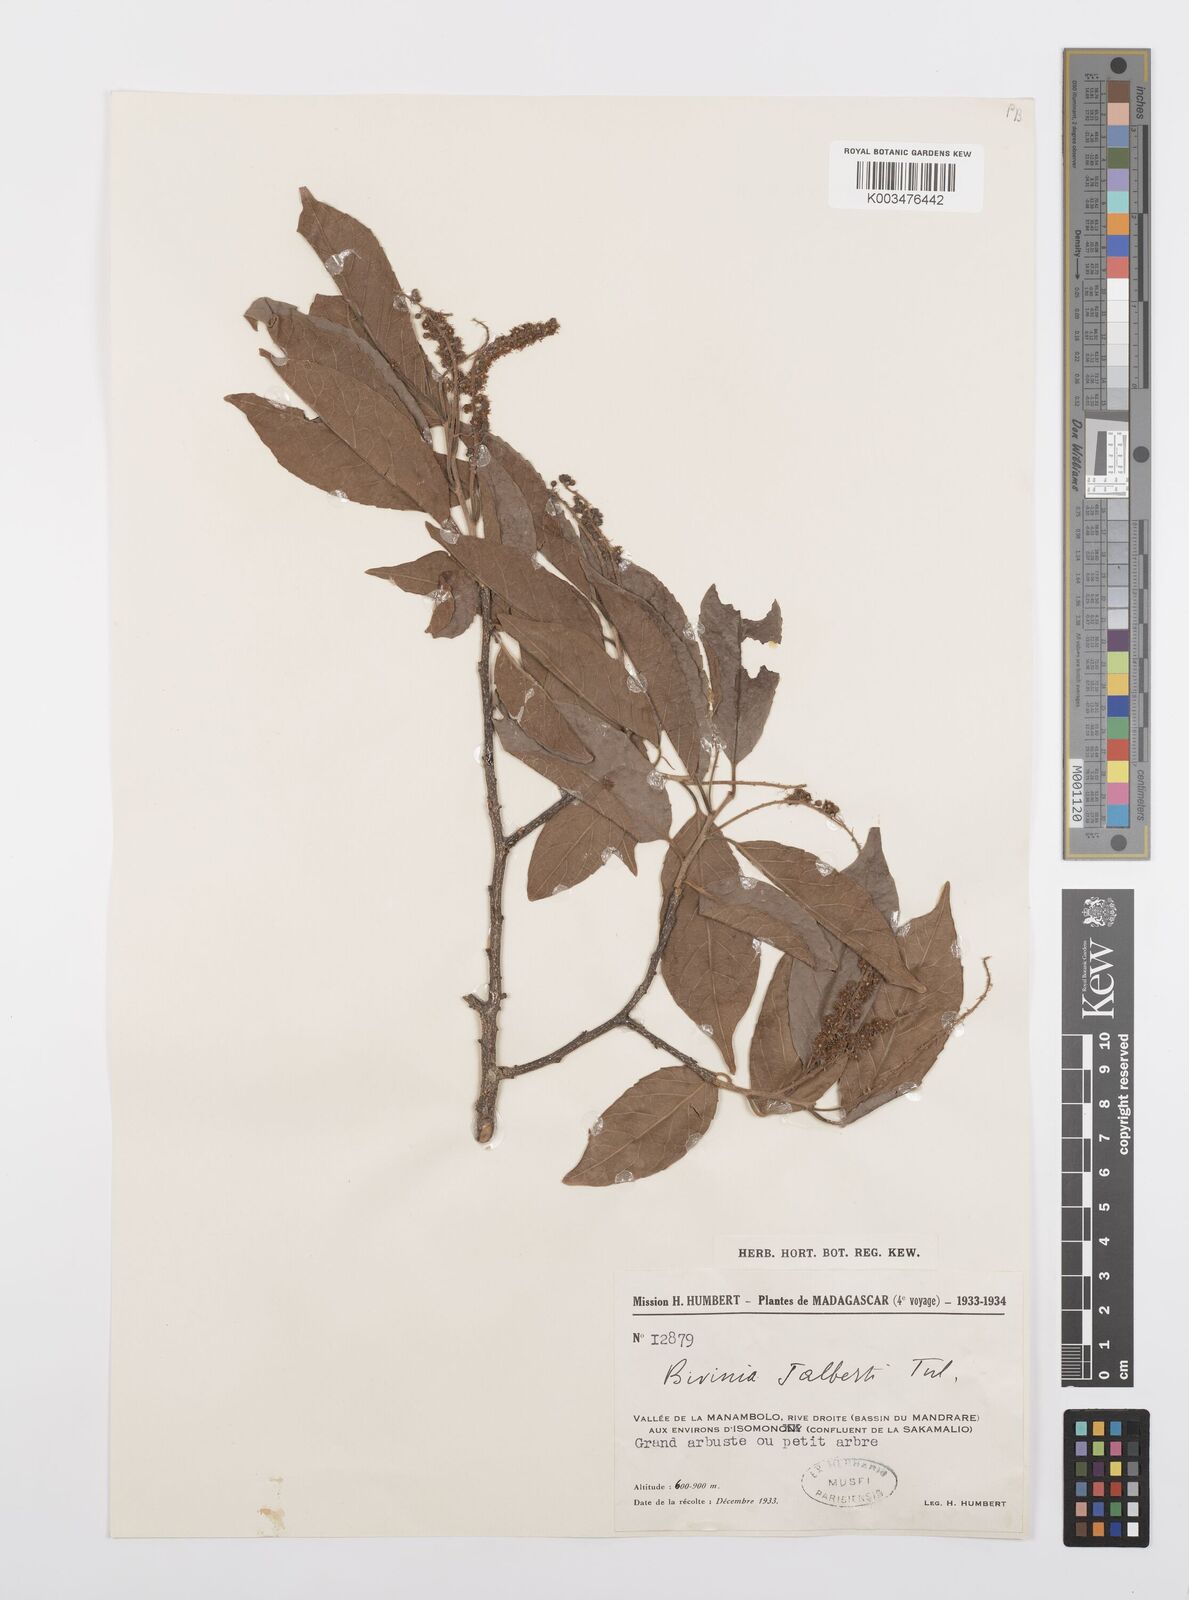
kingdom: Plantae
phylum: Tracheophyta
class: Magnoliopsida
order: Malpighiales
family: Salicaceae
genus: Bivinia
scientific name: Bivinia jalbertii
